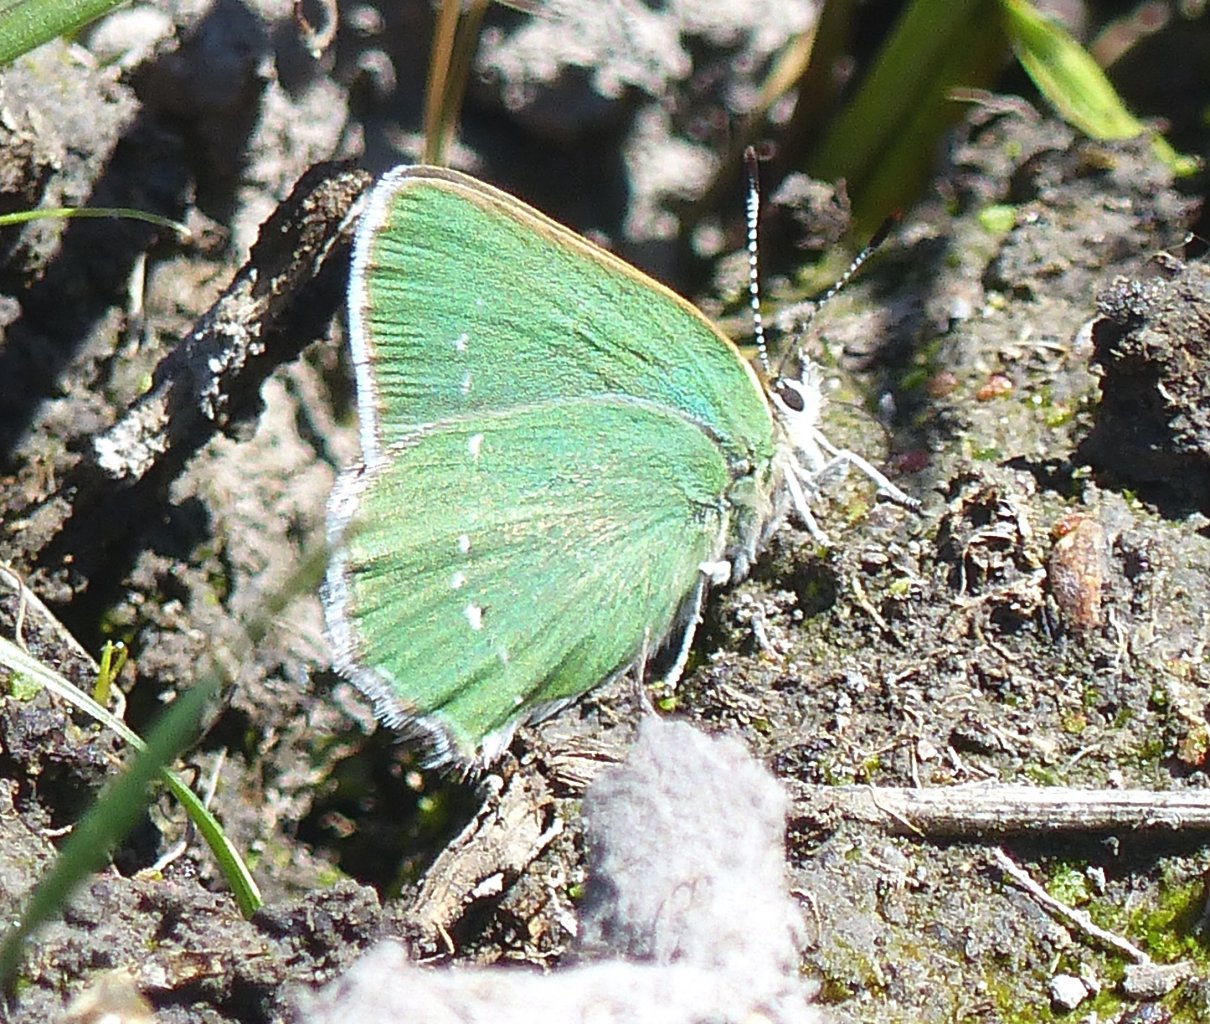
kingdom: Animalia
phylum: Arthropoda
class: Insecta
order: Lepidoptera
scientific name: Lepidoptera
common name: Butterflies
